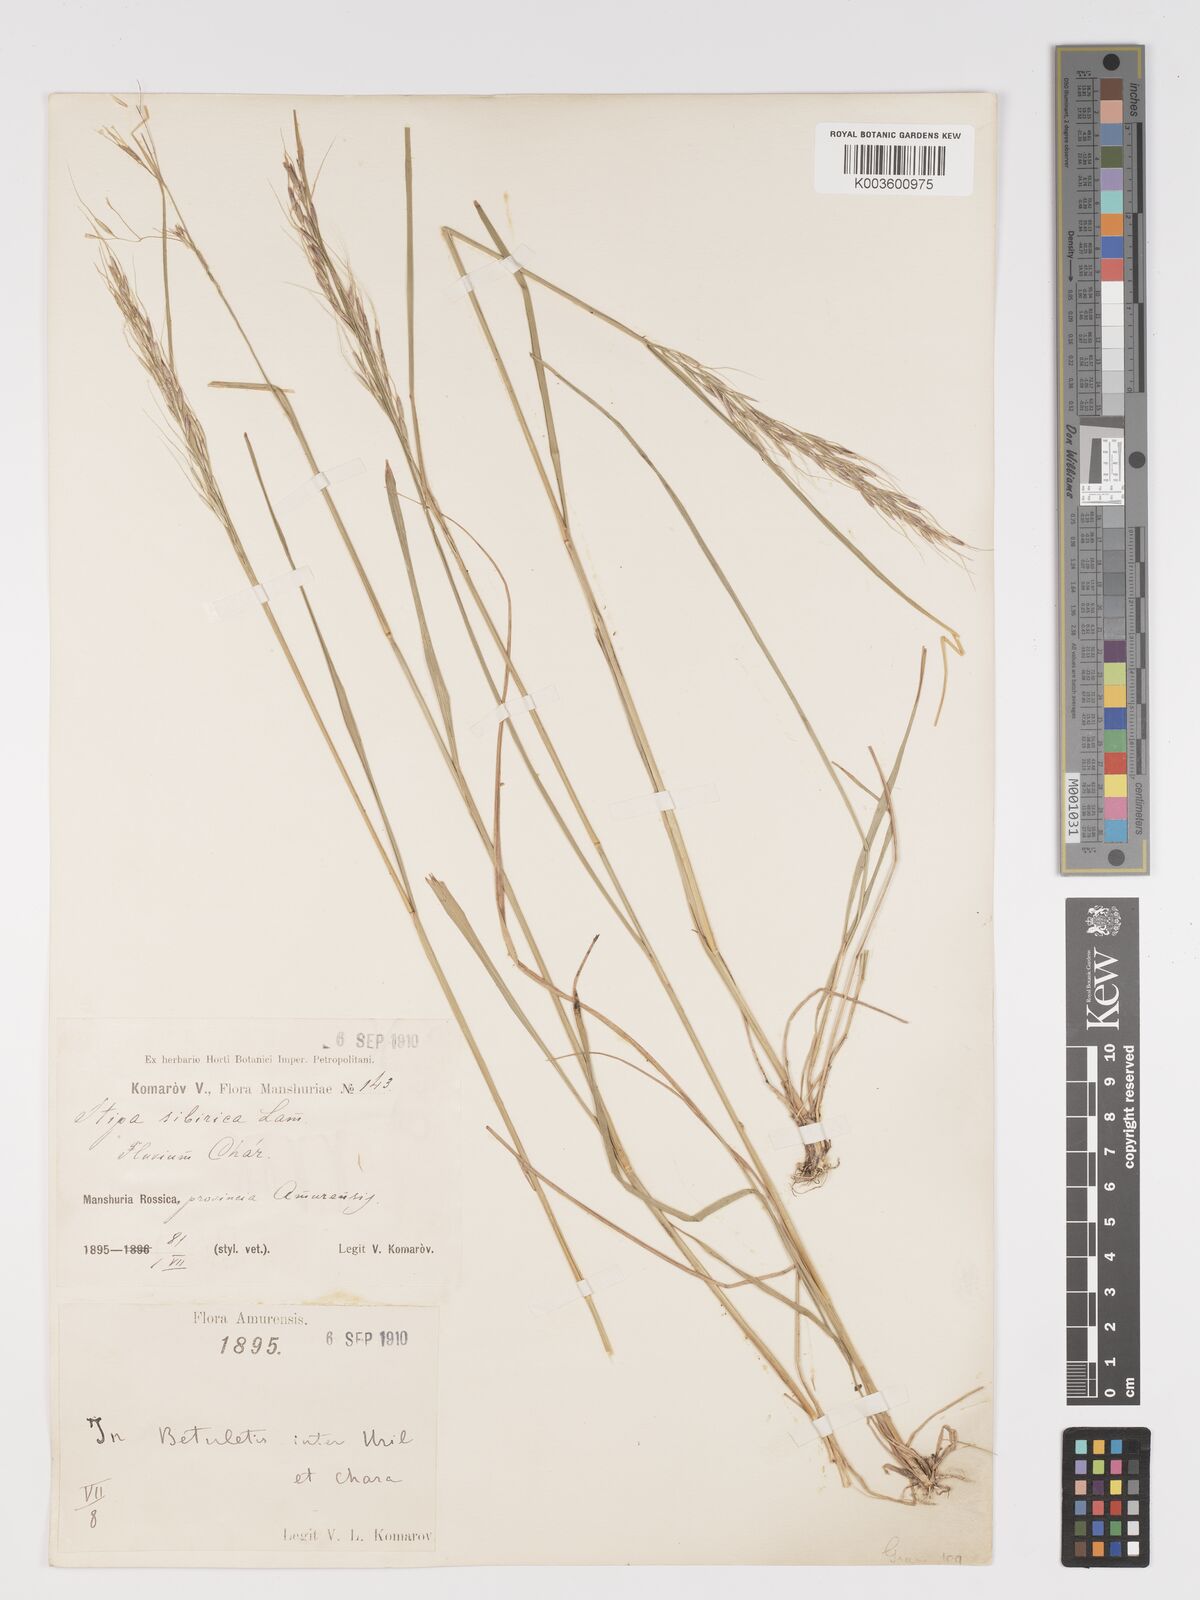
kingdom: Plantae
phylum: Tracheophyta
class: Liliopsida
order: Poales
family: Poaceae
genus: Achnatherum
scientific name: Achnatherum sibiricum
